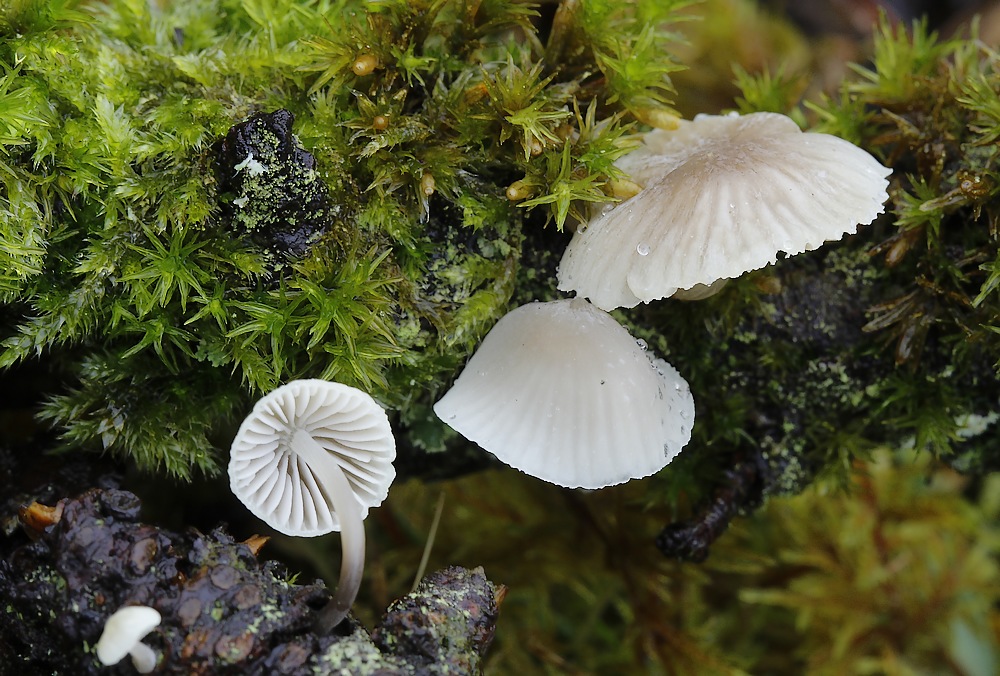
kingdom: Fungi
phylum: Basidiomycota
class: Agaricomycetes
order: Agaricales
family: Mycenaceae
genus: Mycena
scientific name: Mycena
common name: huesvamp
